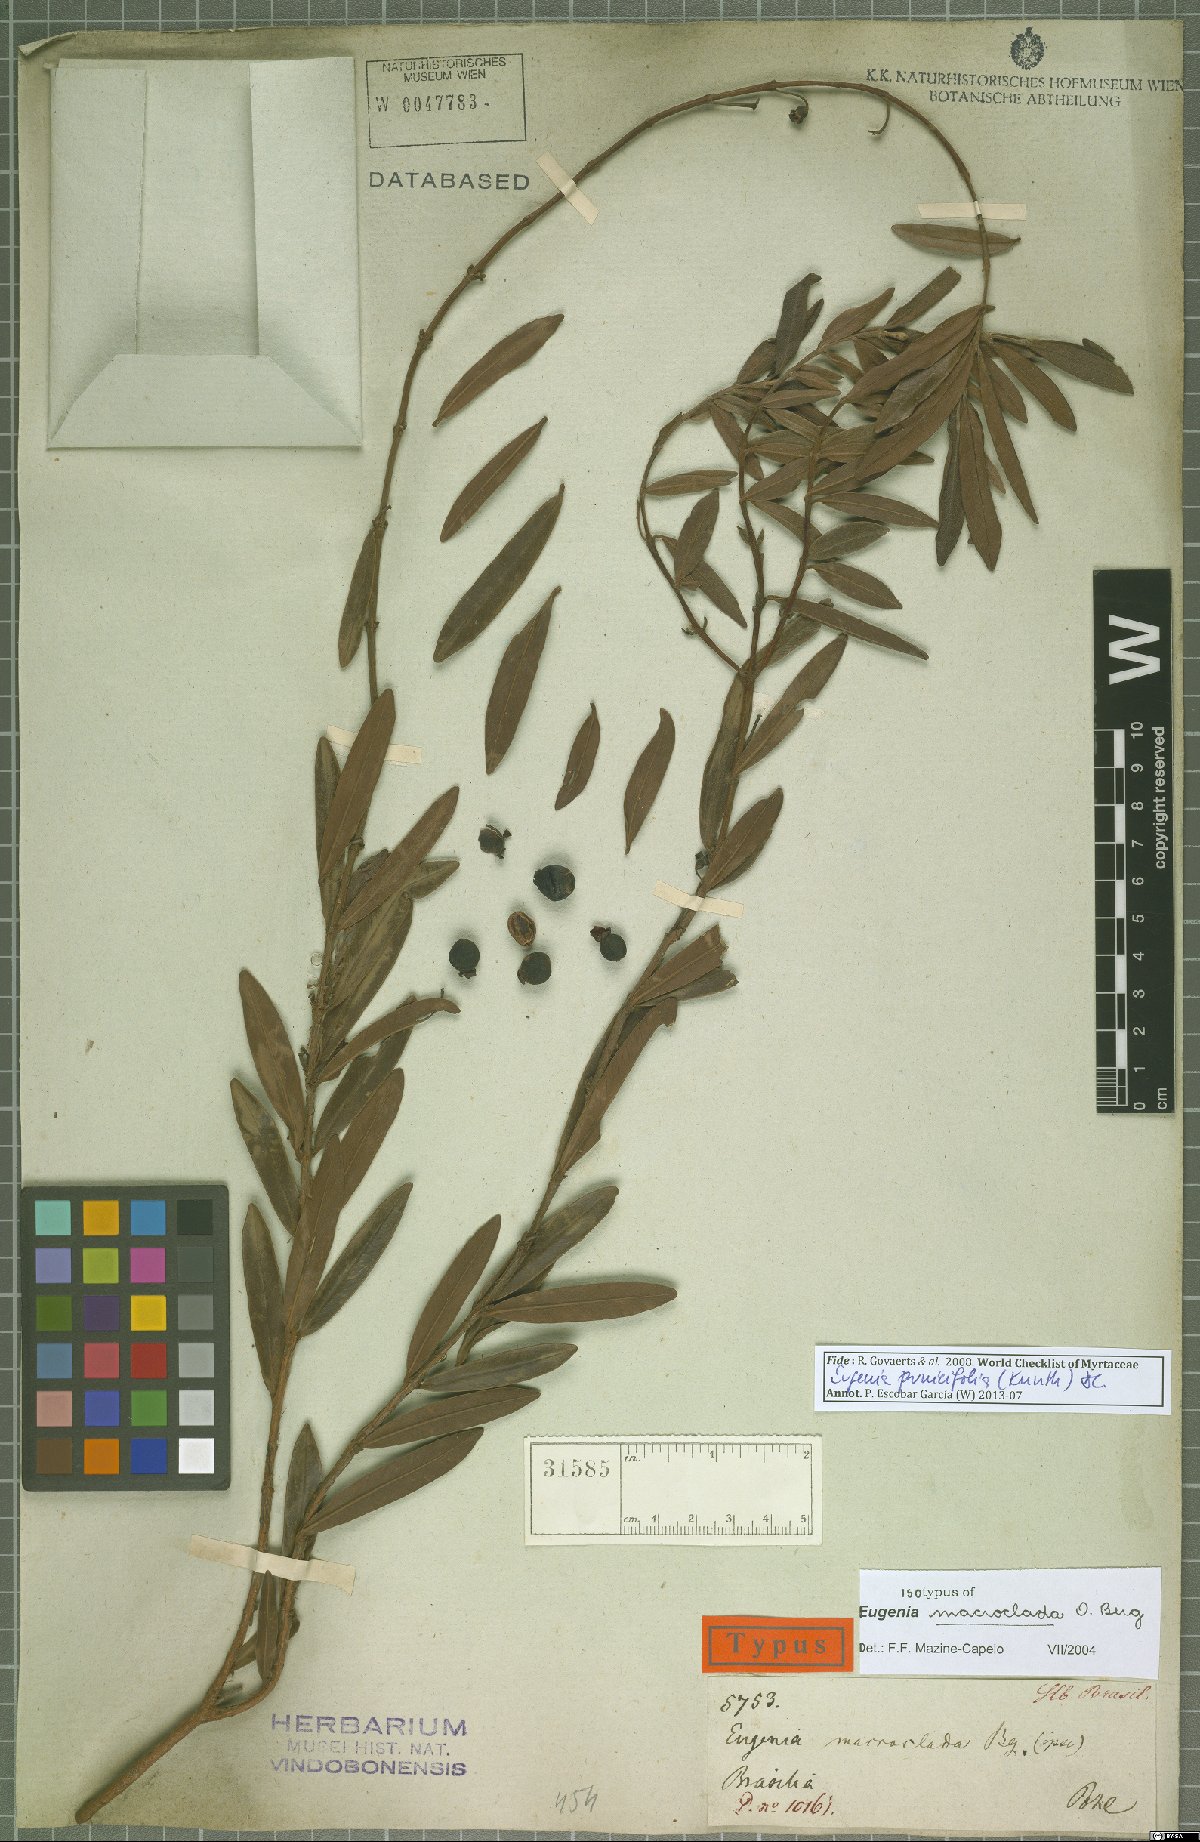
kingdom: Plantae
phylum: Tracheophyta
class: Magnoliopsida
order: Myrtales
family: Myrtaceae
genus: Eugenia
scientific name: Eugenia punicifolia
